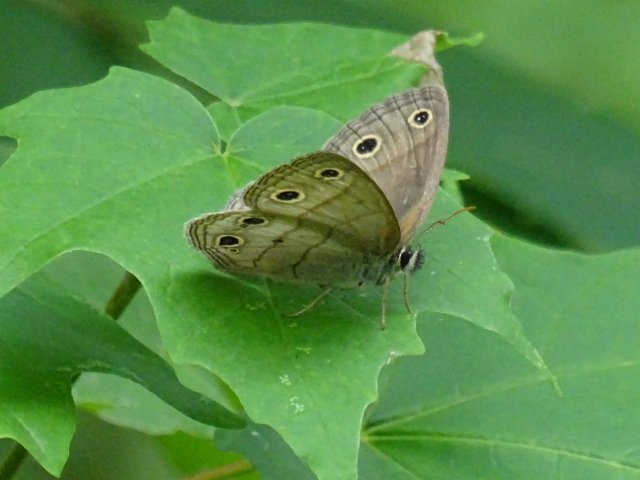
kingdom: Animalia
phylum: Arthropoda
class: Insecta
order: Lepidoptera
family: Nymphalidae
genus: Euptychia
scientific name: Euptychia cymela
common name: Little Wood Satyr
